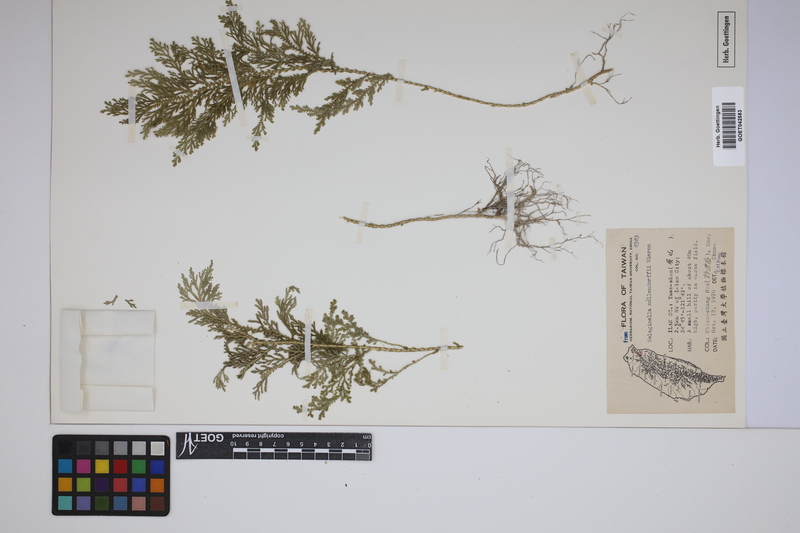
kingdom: Plantae
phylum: Tracheophyta
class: Lycopodiopsida
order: Selaginellales
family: Selaginellaceae
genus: Selaginella
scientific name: Selaginella moellendorffii
